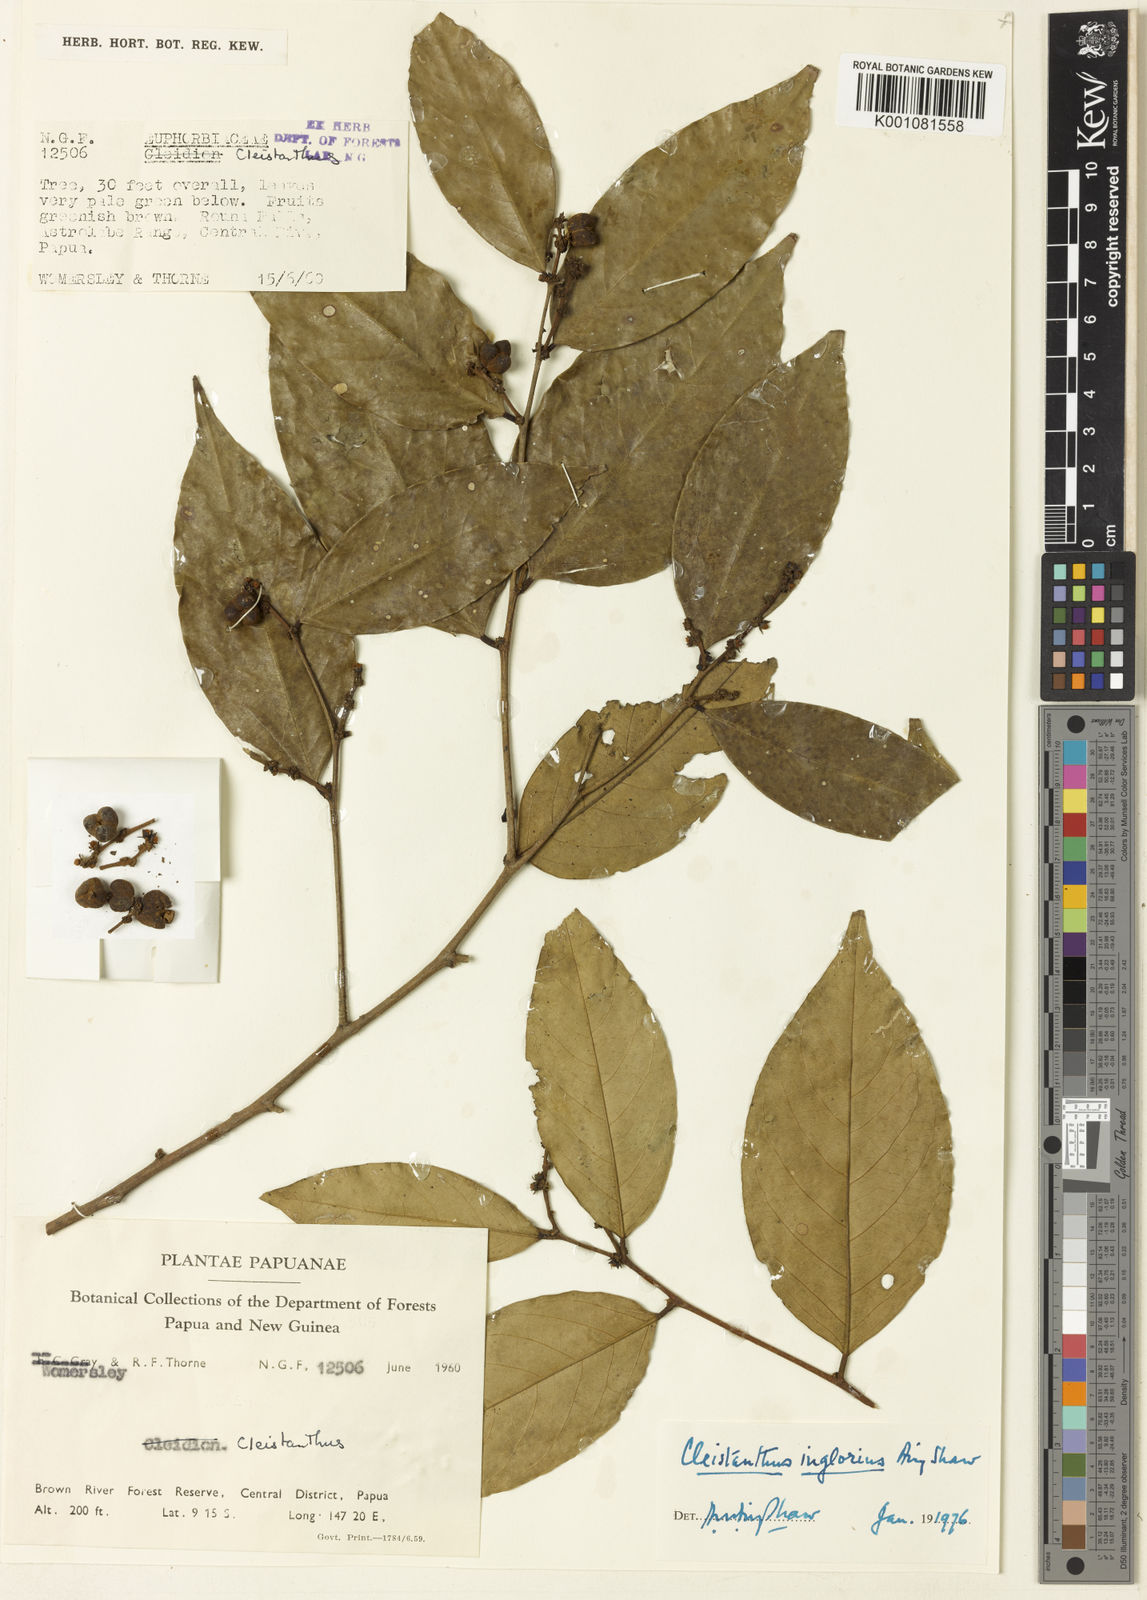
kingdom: Plantae
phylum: Tracheophyta
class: Magnoliopsida
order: Malpighiales
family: Phyllanthaceae
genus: Cleistanthus
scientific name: Cleistanthus inglorius
